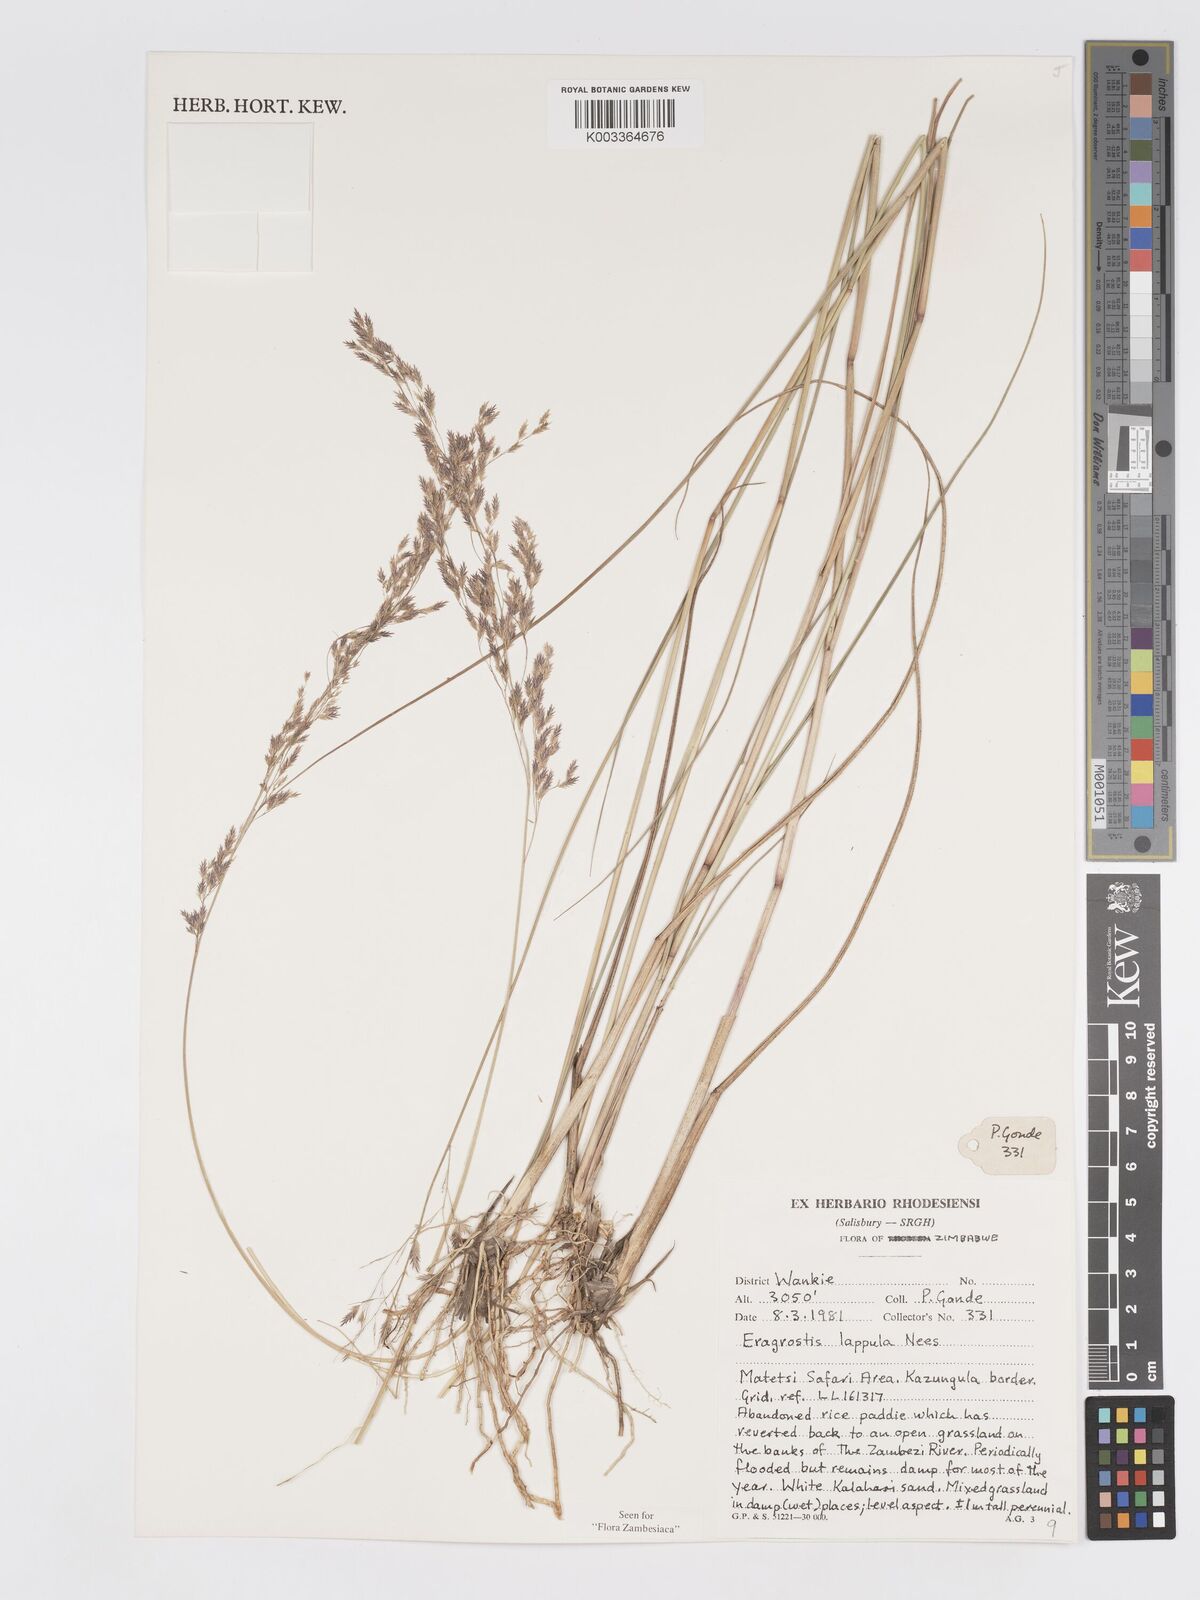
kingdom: Plantae
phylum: Tracheophyta
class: Liliopsida
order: Poales
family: Poaceae
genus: Eragrostis
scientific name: Eragrostis lappula
